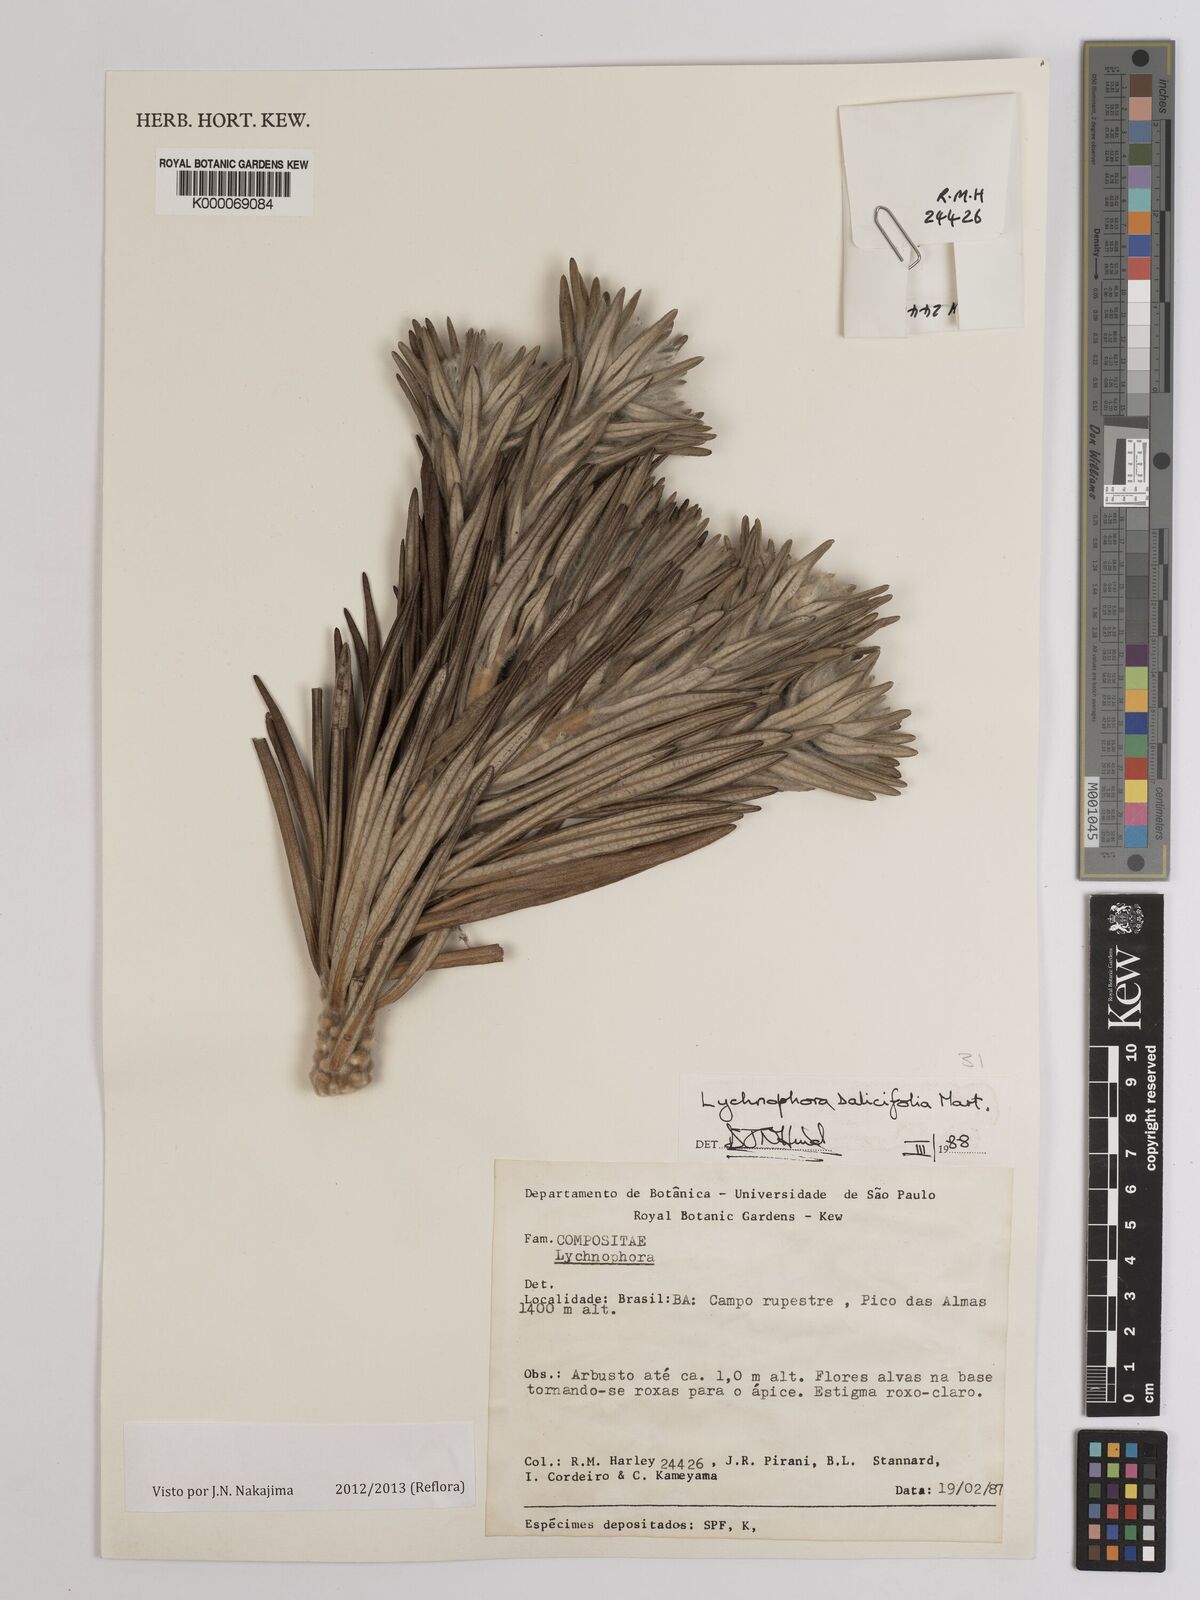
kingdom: Plantae
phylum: Tracheophyta
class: Magnoliopsida
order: Asterales
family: Asteraceae
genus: Lychnophora
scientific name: Lychnophora salicifolia
